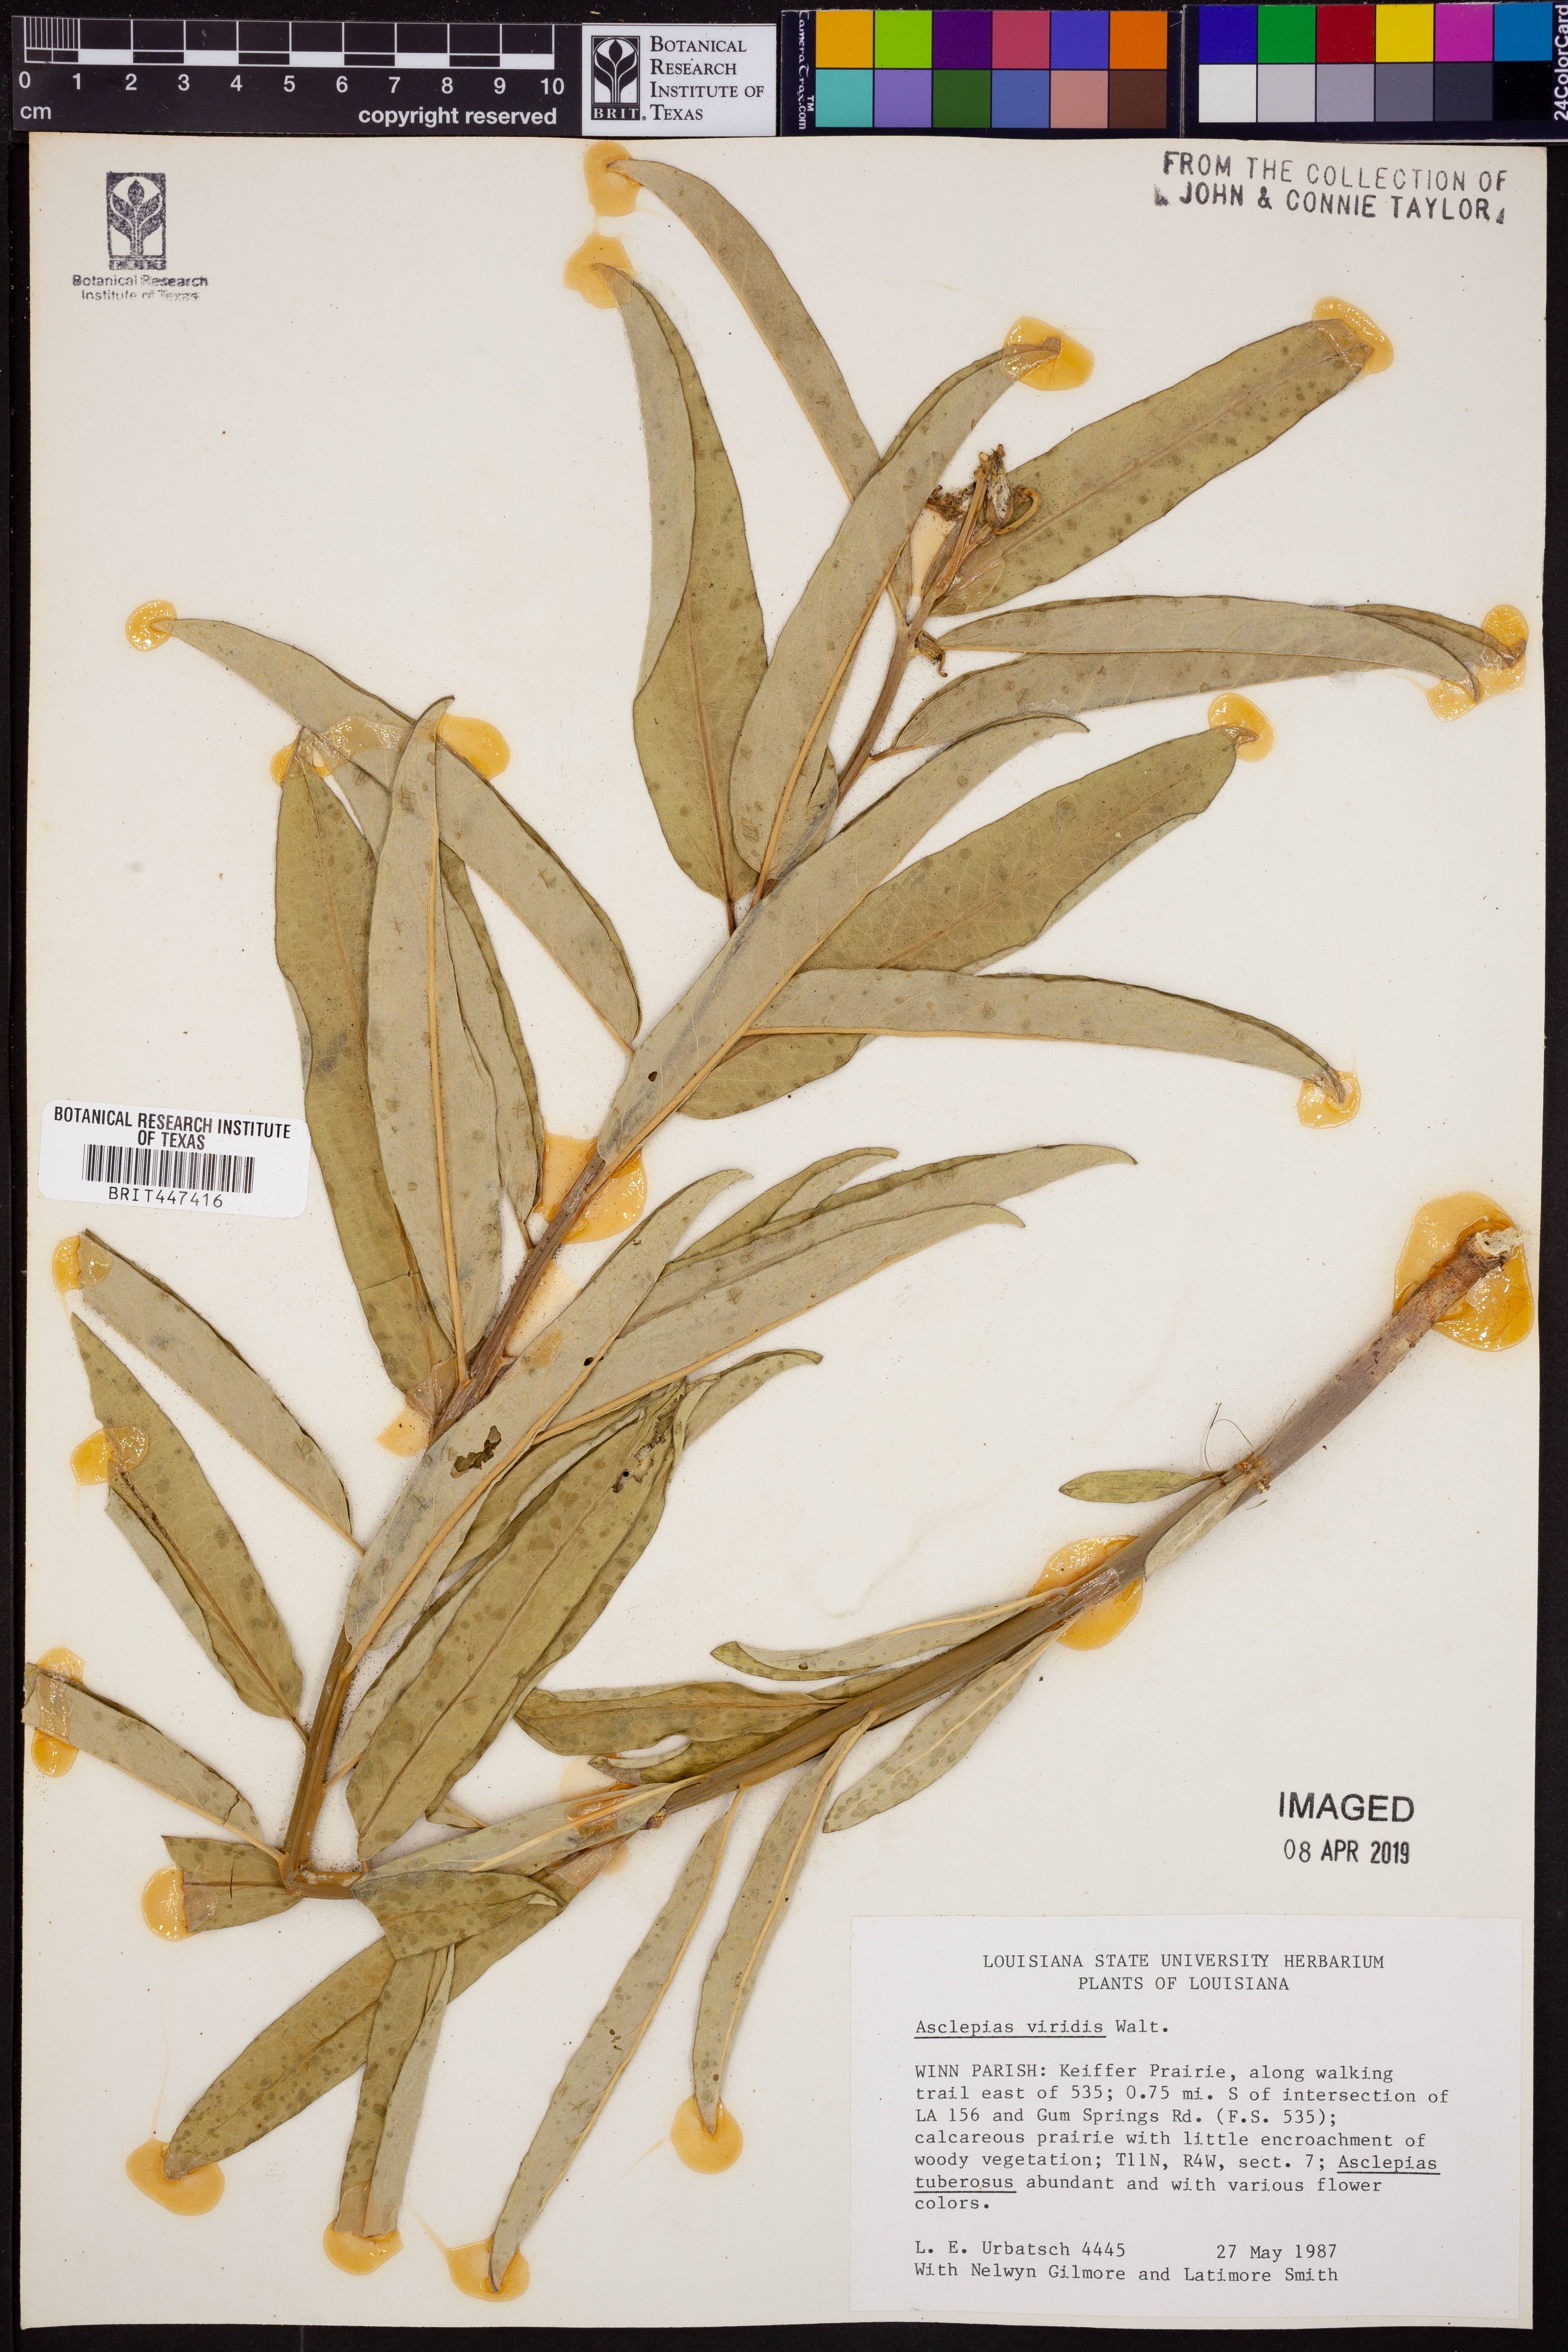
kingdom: Plantae
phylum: Tracheophyta
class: Magnoliopsida
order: Gentianales
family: Apocynaceae
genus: Asclepias
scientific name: Asclepias viridis
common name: Antelope-horns
